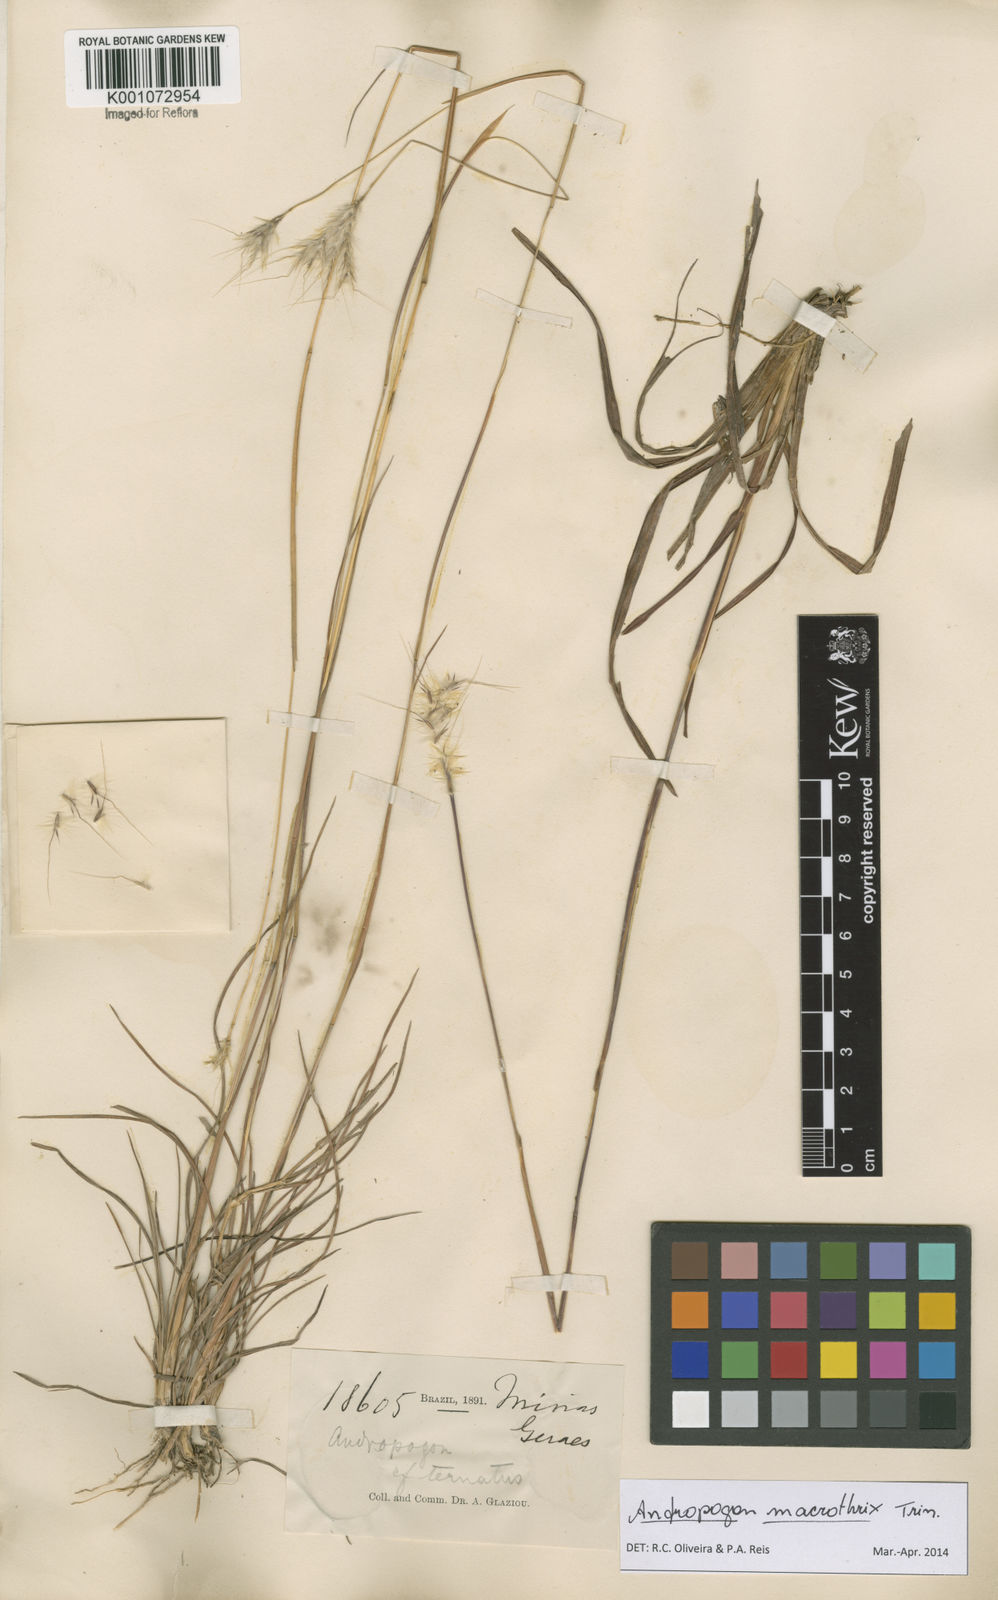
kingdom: Plantae
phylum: Tracheophyta
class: Liliopsida
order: Poales
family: Poaceae
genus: Andropogon
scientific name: Andropogon macrothrix
